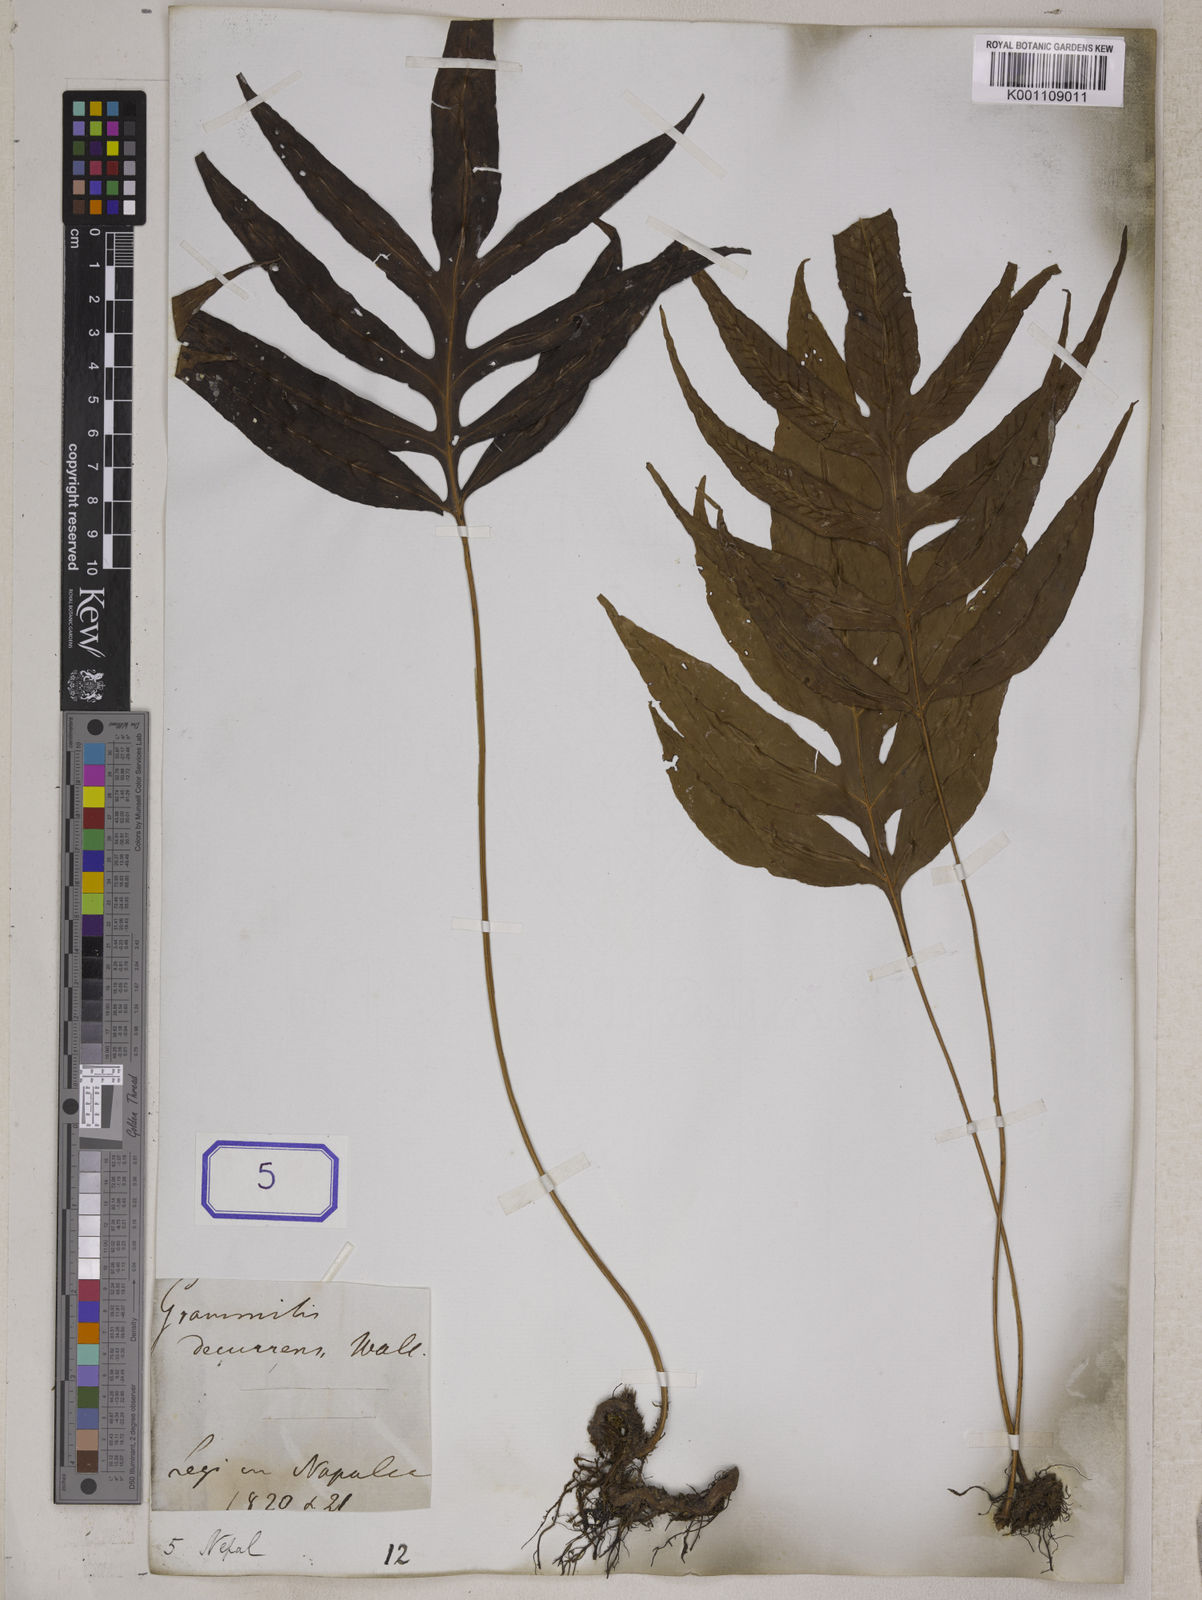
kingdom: Plantae
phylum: Tracheophyta
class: Polypodiopsida
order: Polypodiales
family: Polypodiaceae
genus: Grammitis
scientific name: Grammitis
